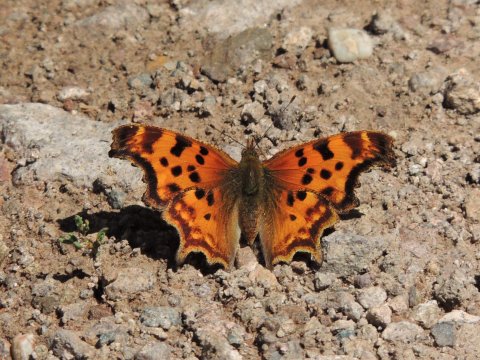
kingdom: Animalia
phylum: Arthropoda
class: Insecta
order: Lepidoptera
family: Nymphalidae
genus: Polygonia
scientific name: Polygonia satyrus
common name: Satyr Comma
